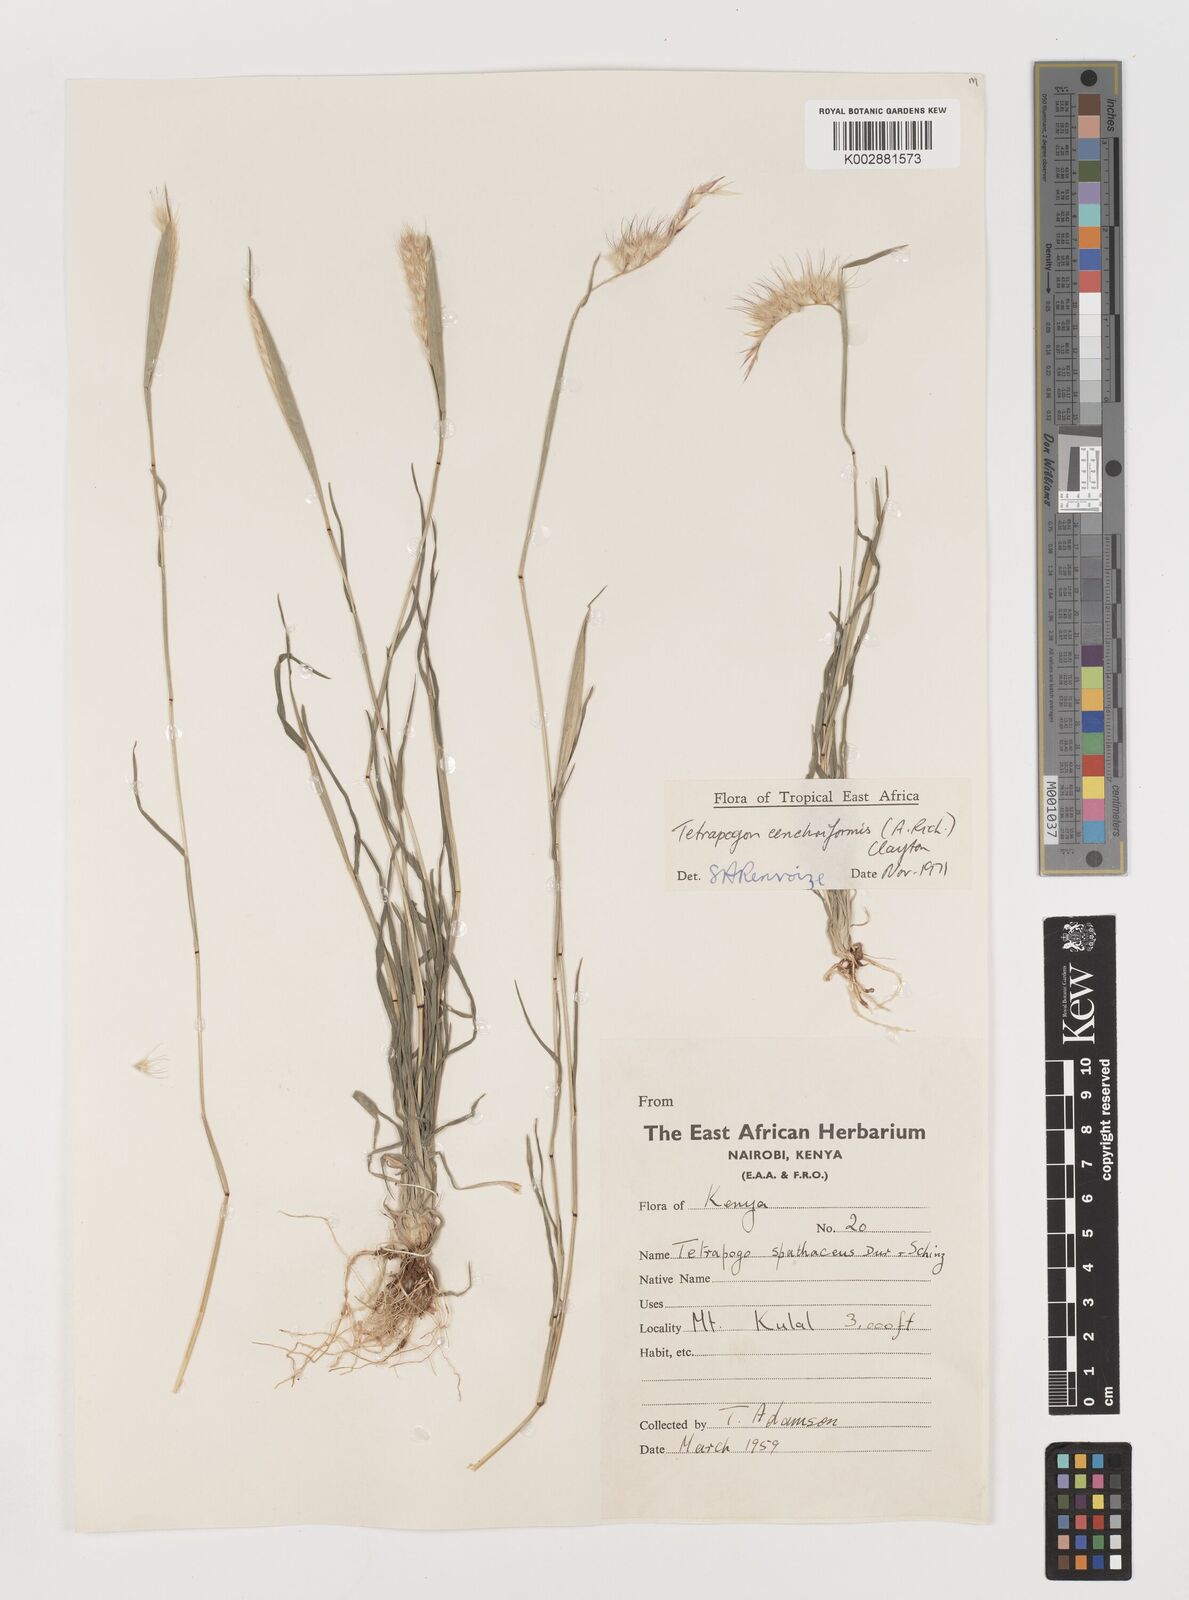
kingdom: Plantae
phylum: Tracheophyta
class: Liliopsida
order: Poales
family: Poaceae
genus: Tetrapogon
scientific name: Tetrapogon cenchriformis
